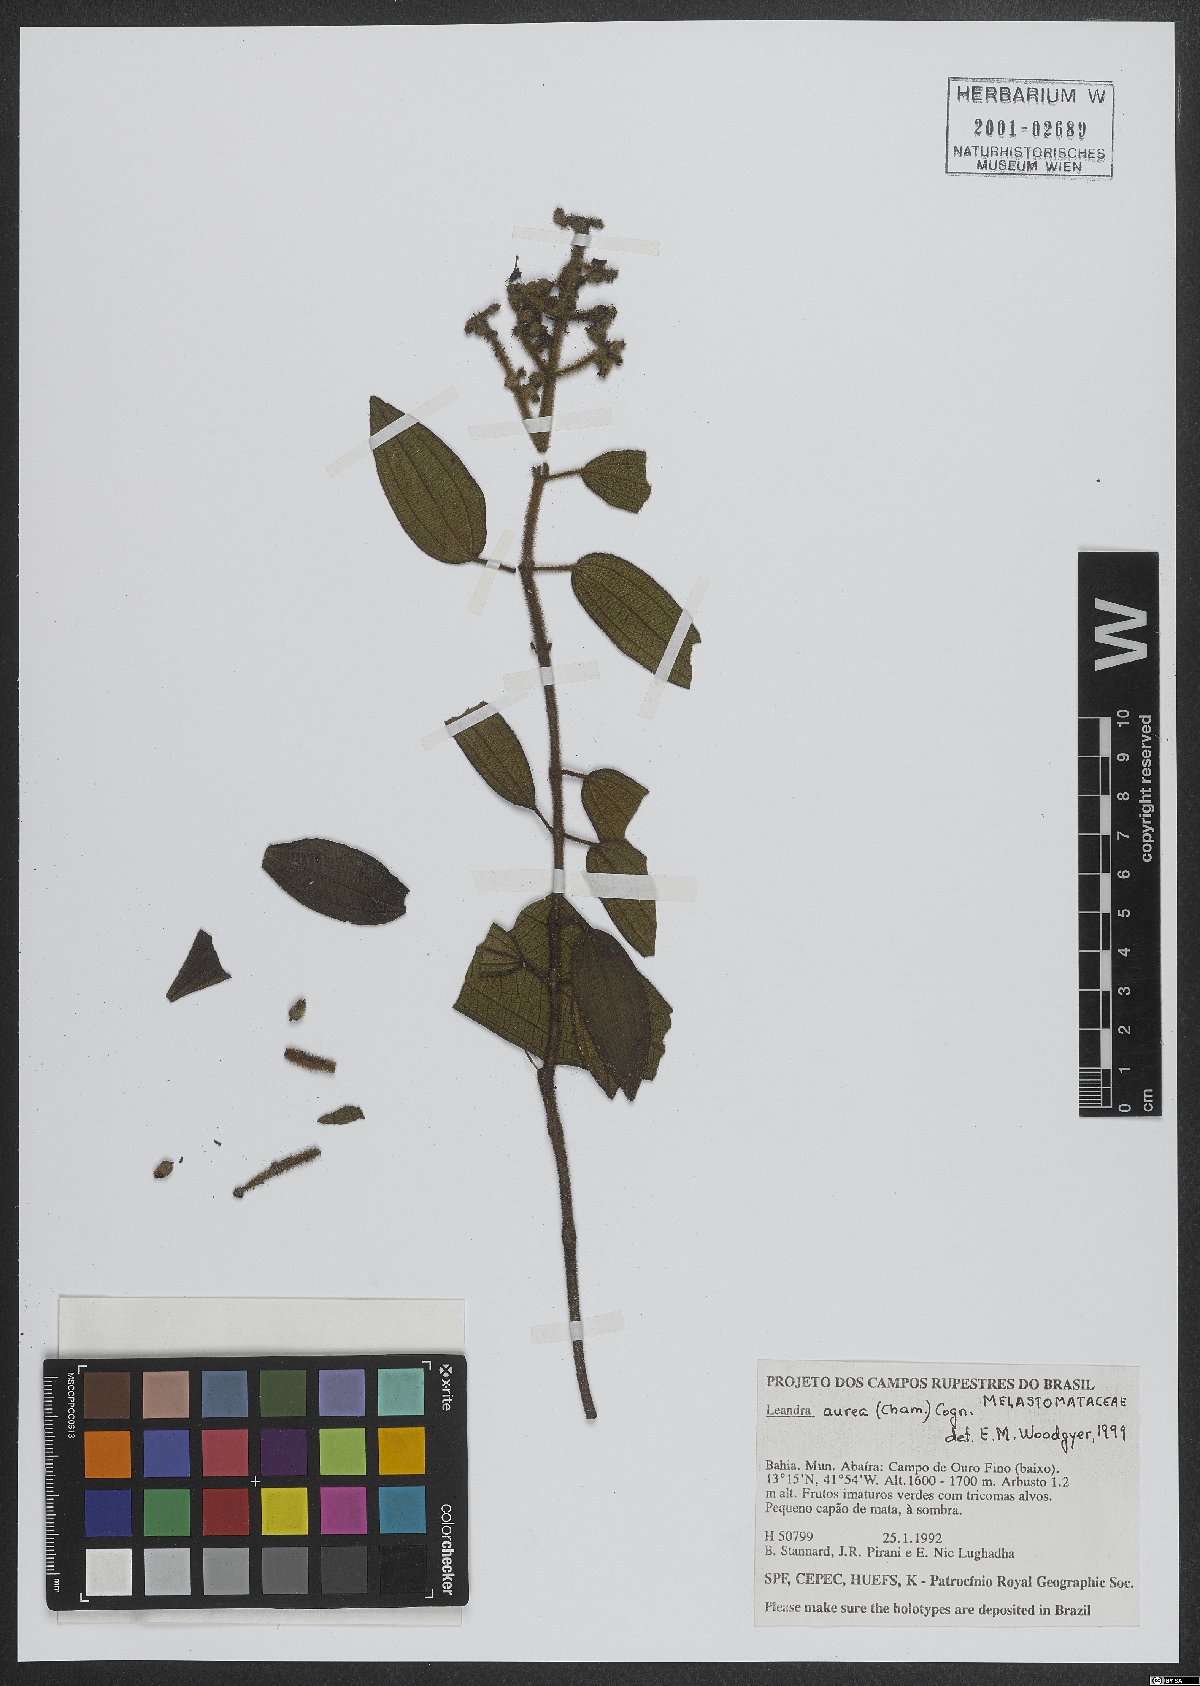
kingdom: Plantae
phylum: Tracheophyta
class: Magnoliopsida
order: Myrtales
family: Melastomataceae
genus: Miconia
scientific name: Miconia auricoma
